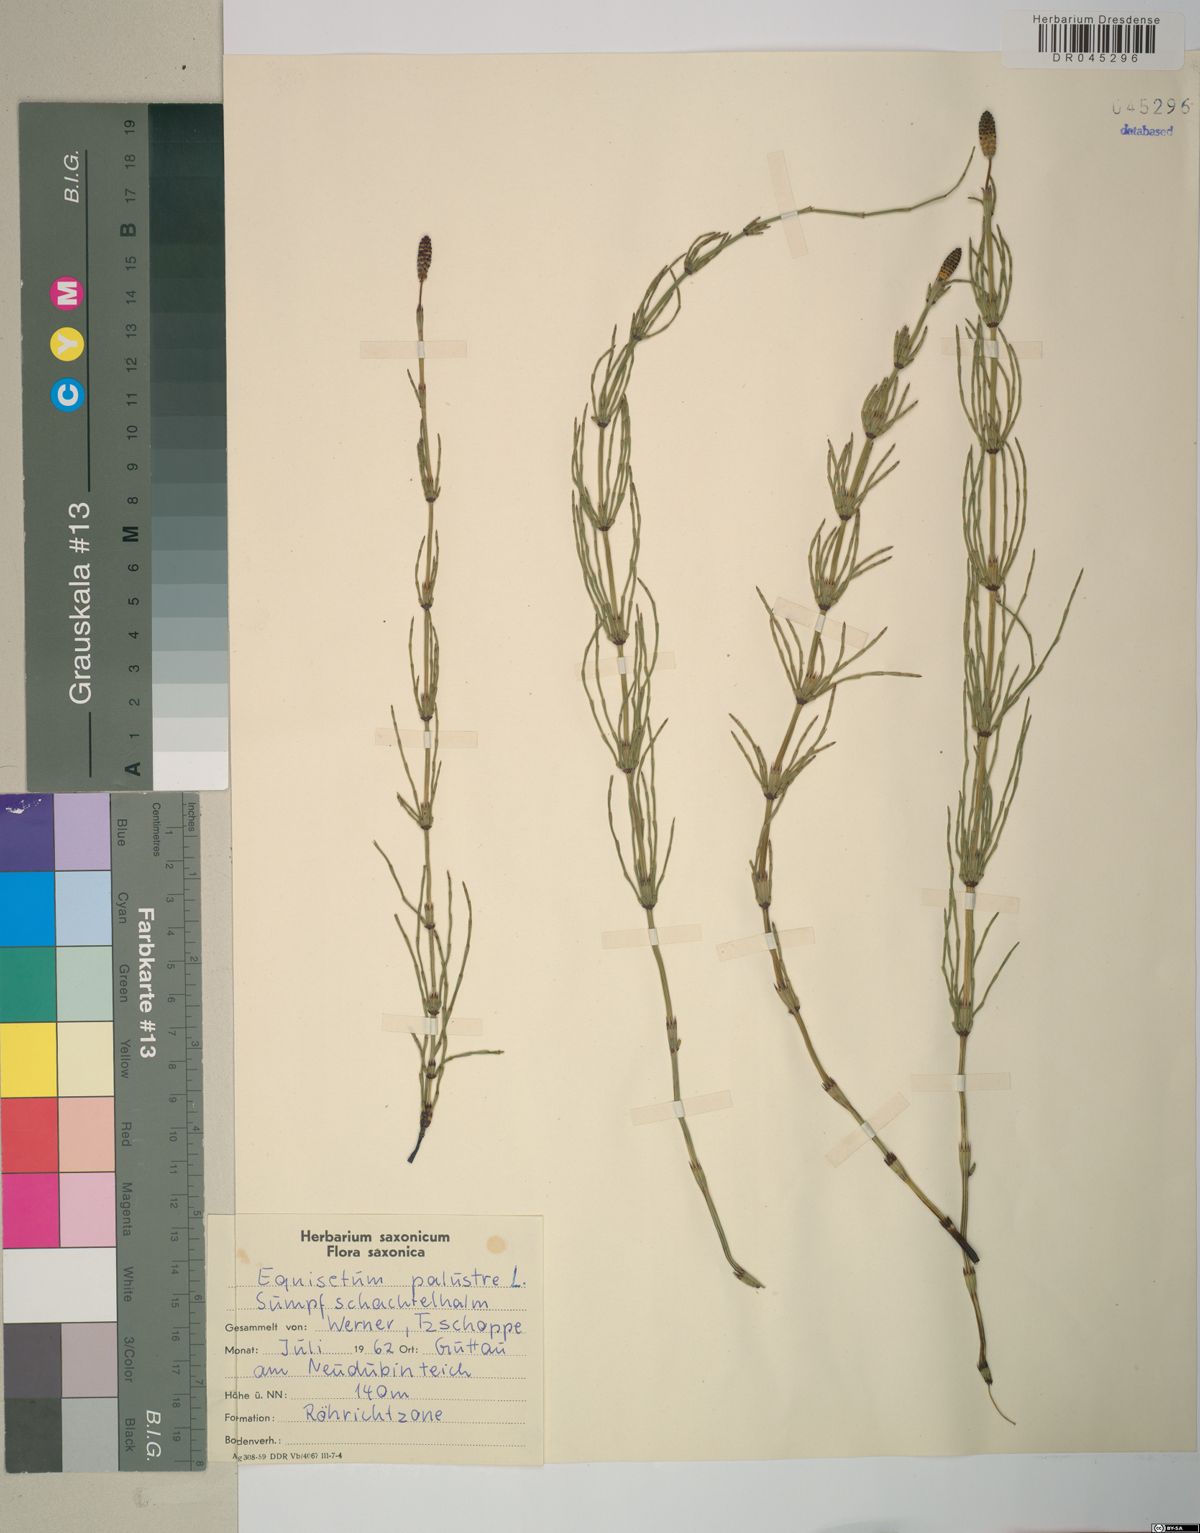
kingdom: Plantae
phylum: Tracheophyta
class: Polypodiopsida
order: Equisetales
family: Equisetaceae
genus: Equisetum
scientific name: Equisetum palustre
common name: Marsh horsetail
